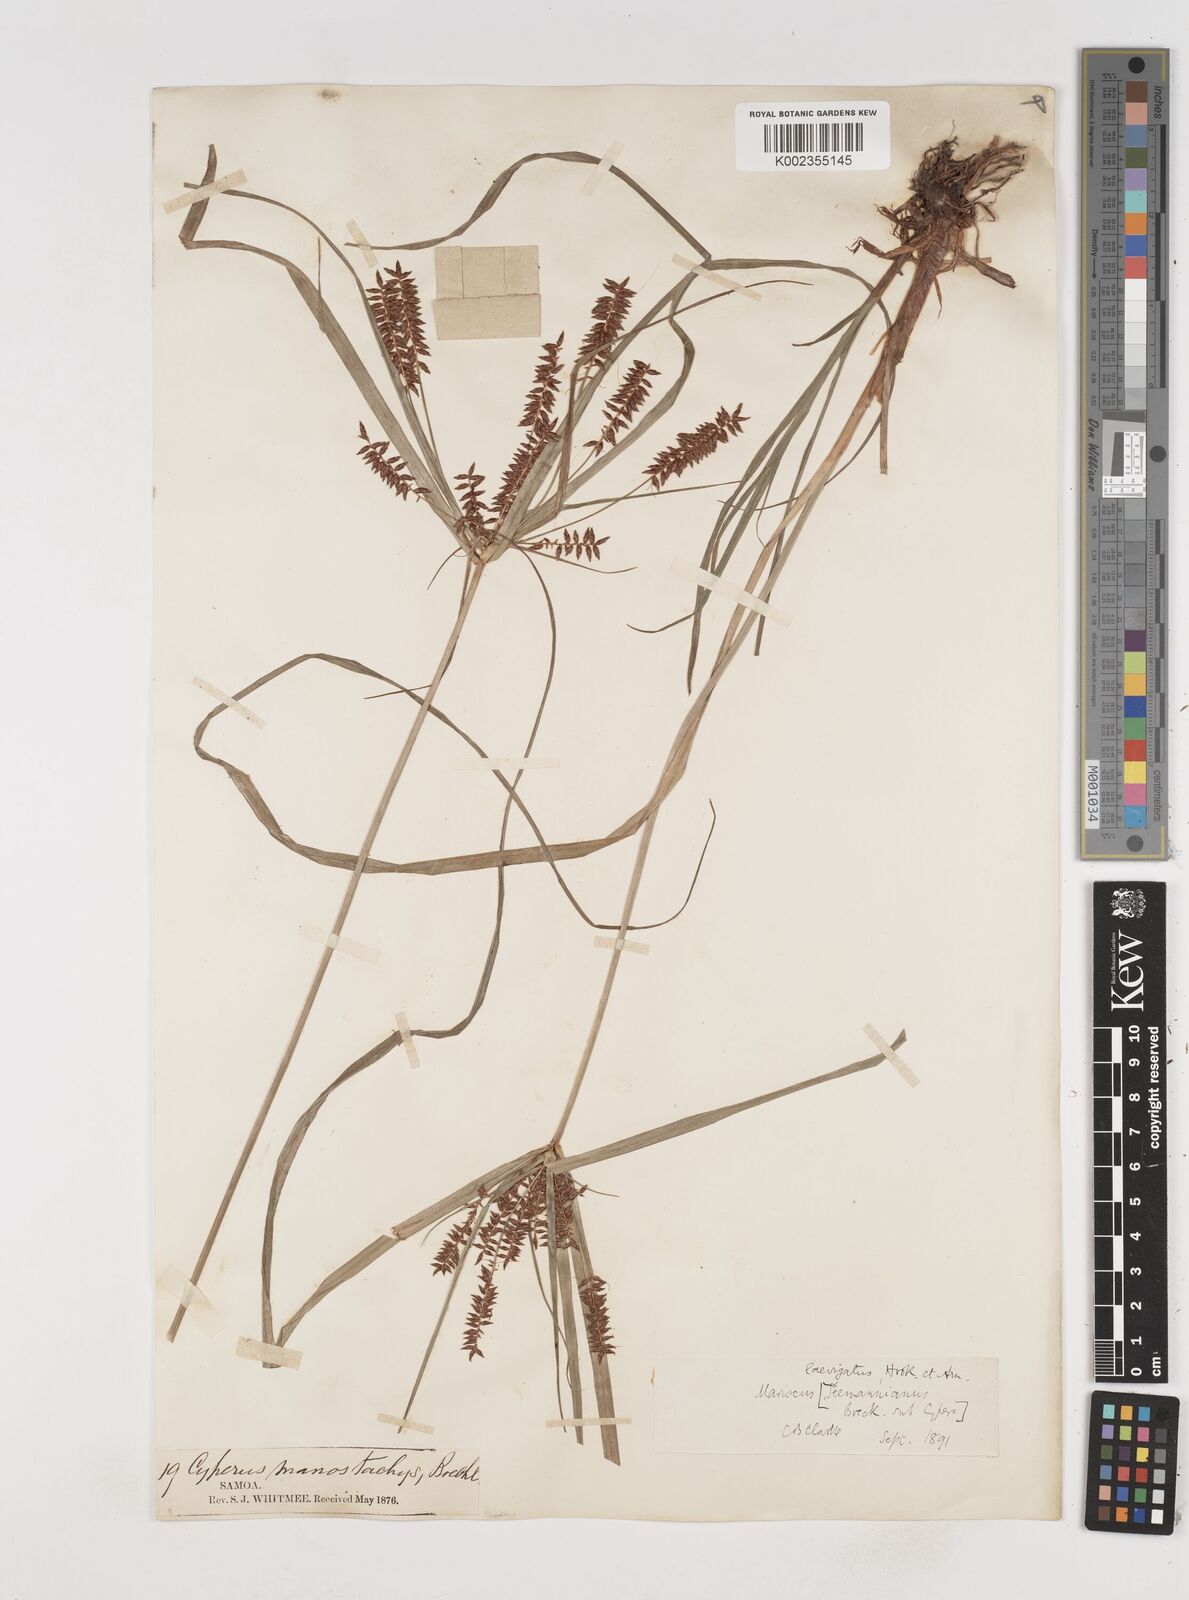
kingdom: Plantae
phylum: Tracheophyta
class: Liliopsida
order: Poales
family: Cyperaceae
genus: Cyperus
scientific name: Cyperus seemannianus
